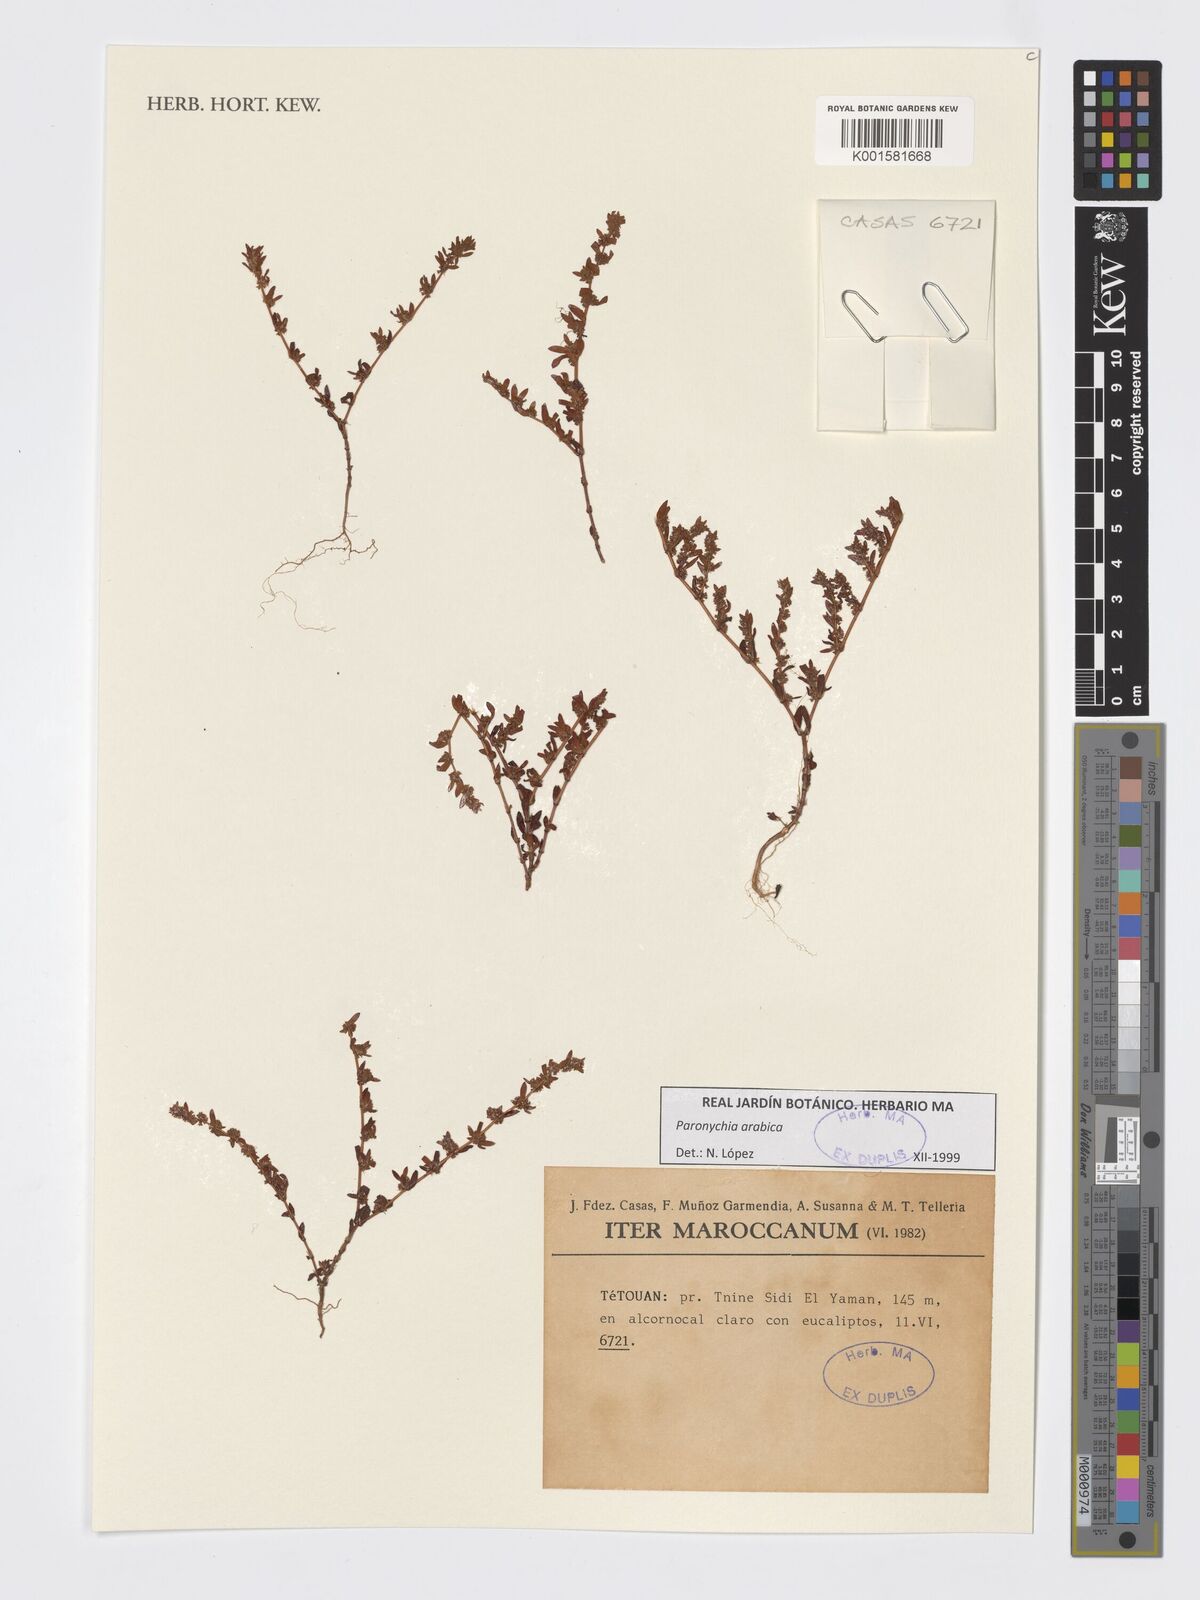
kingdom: Plantae
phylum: Tracheophyta
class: Magnoliopsida
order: Caryophyllales
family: Caryophyllaceae
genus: Paronychia
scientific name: Paronychia arabica
